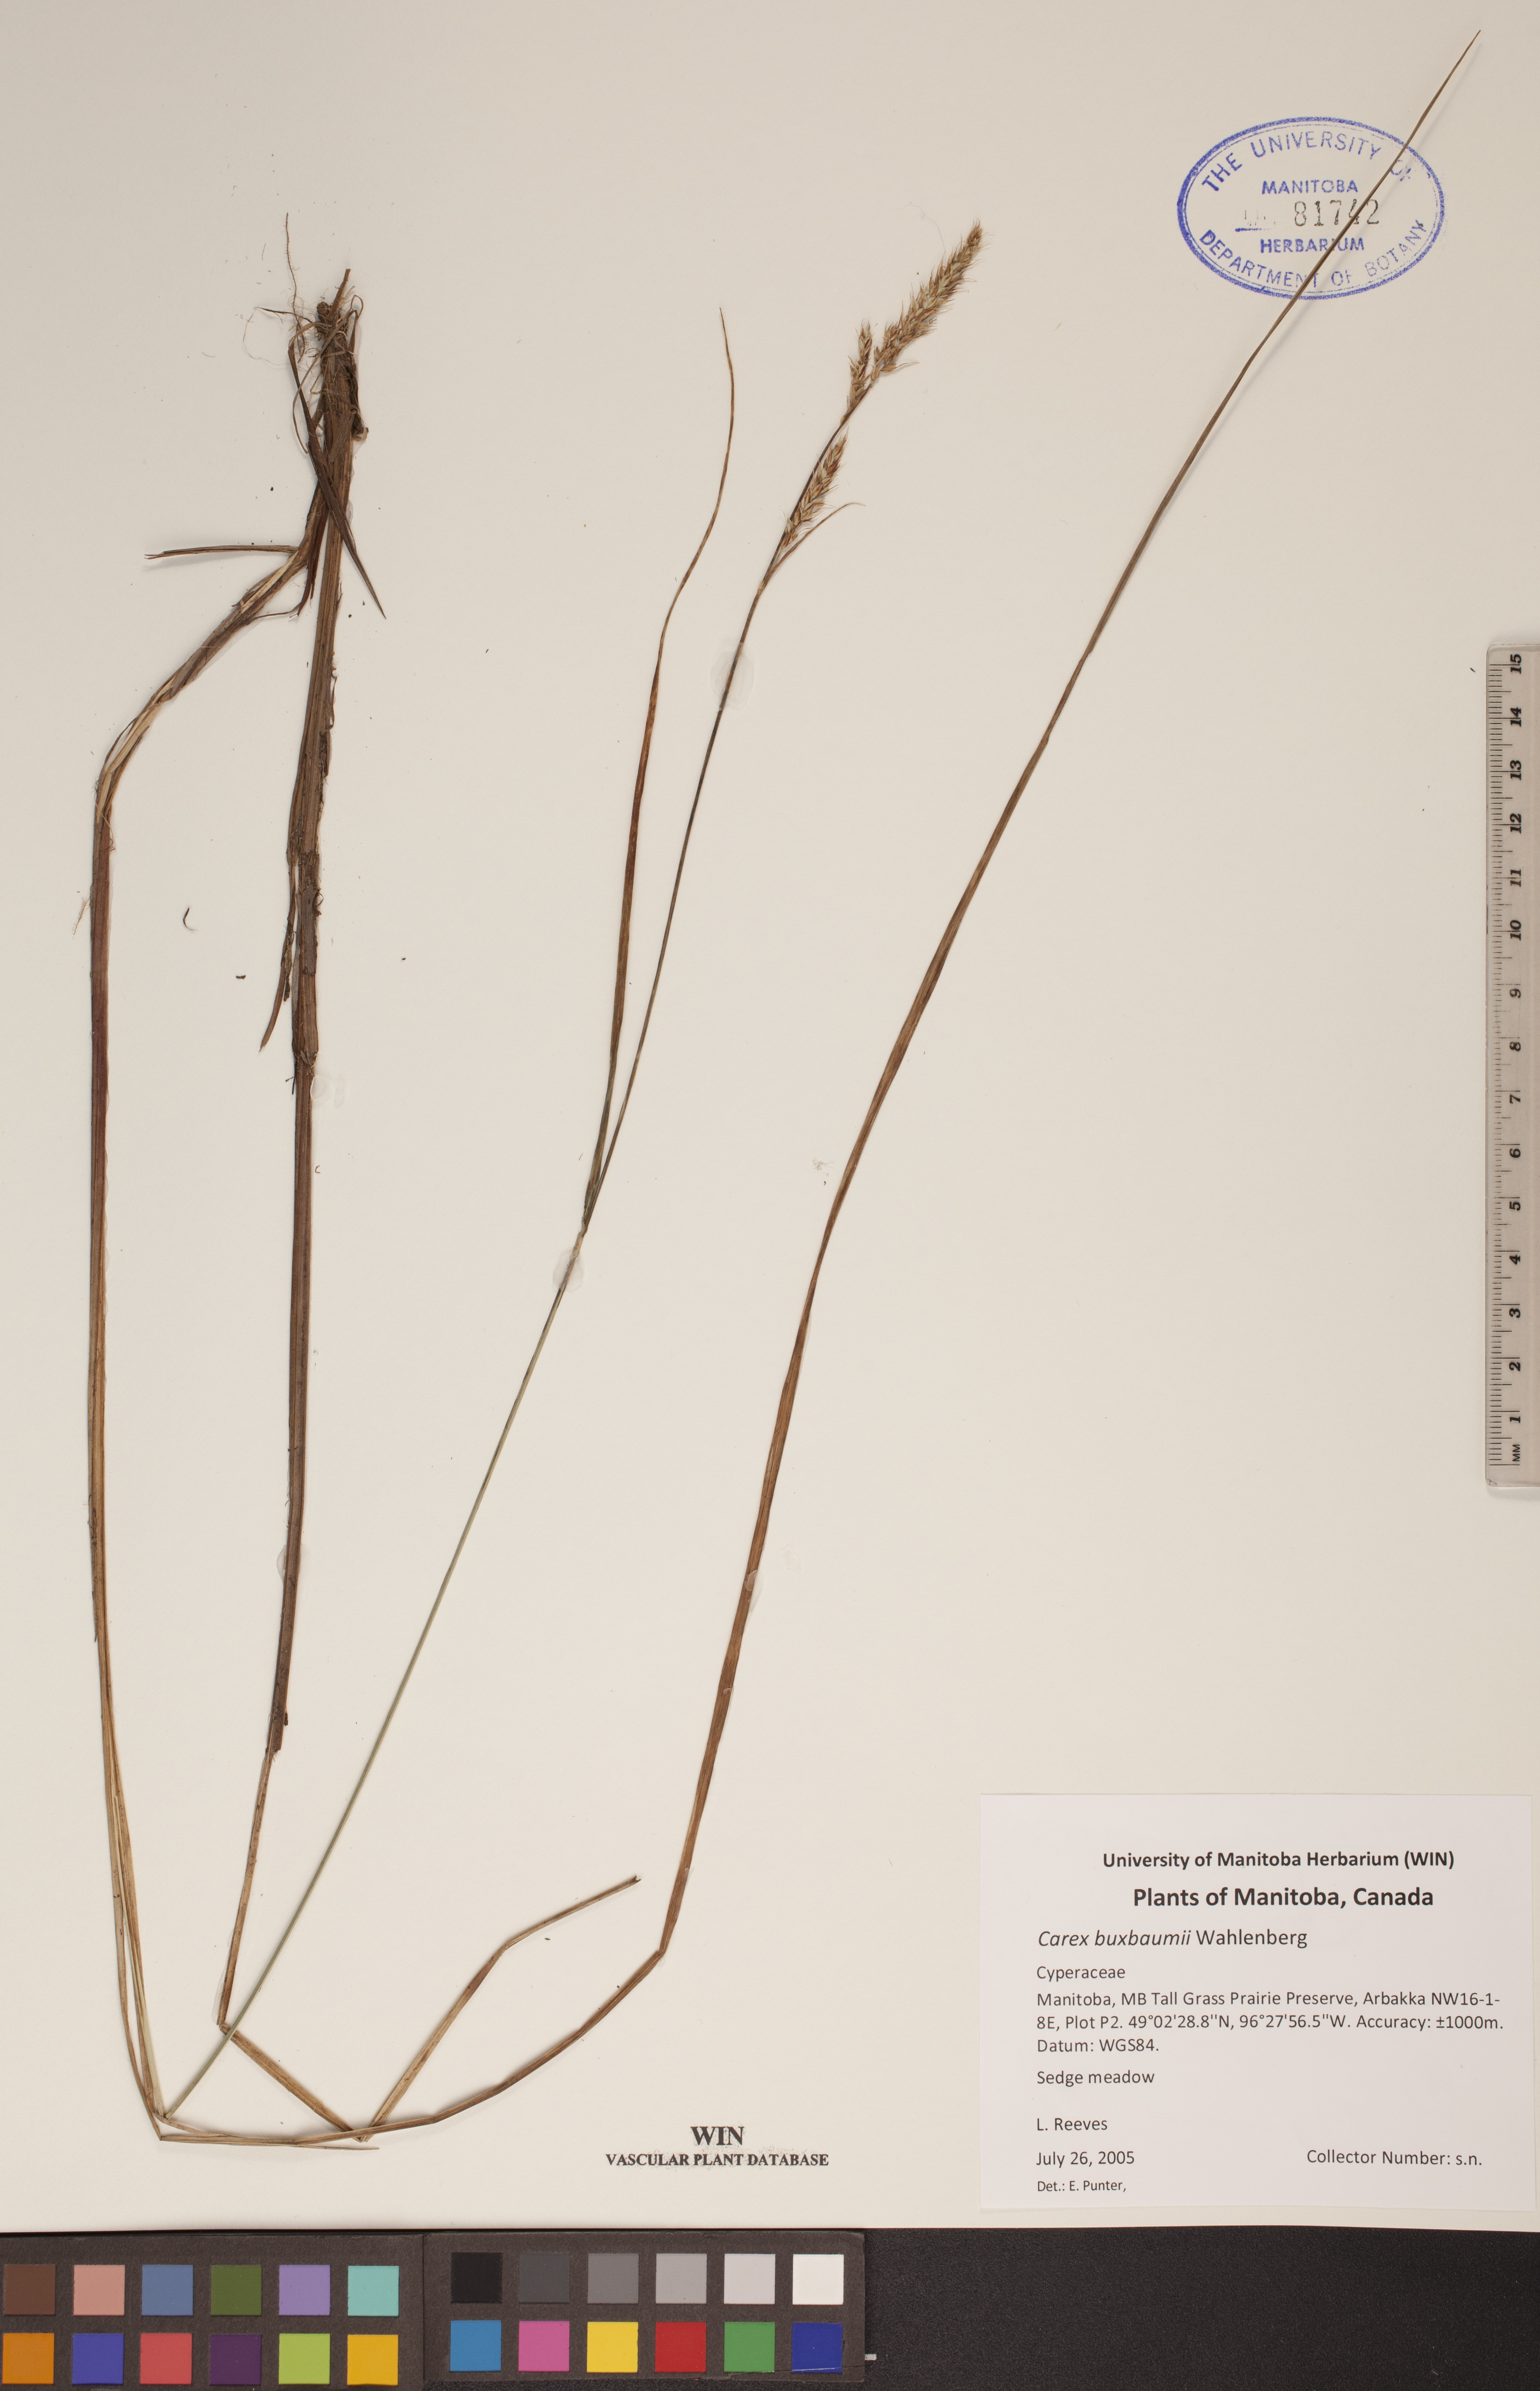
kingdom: Plantae
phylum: Tracheophyta
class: Liliopsida
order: Poales
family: Cyperaceae
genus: Carex
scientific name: Carex buxbaumii
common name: Club sedge
